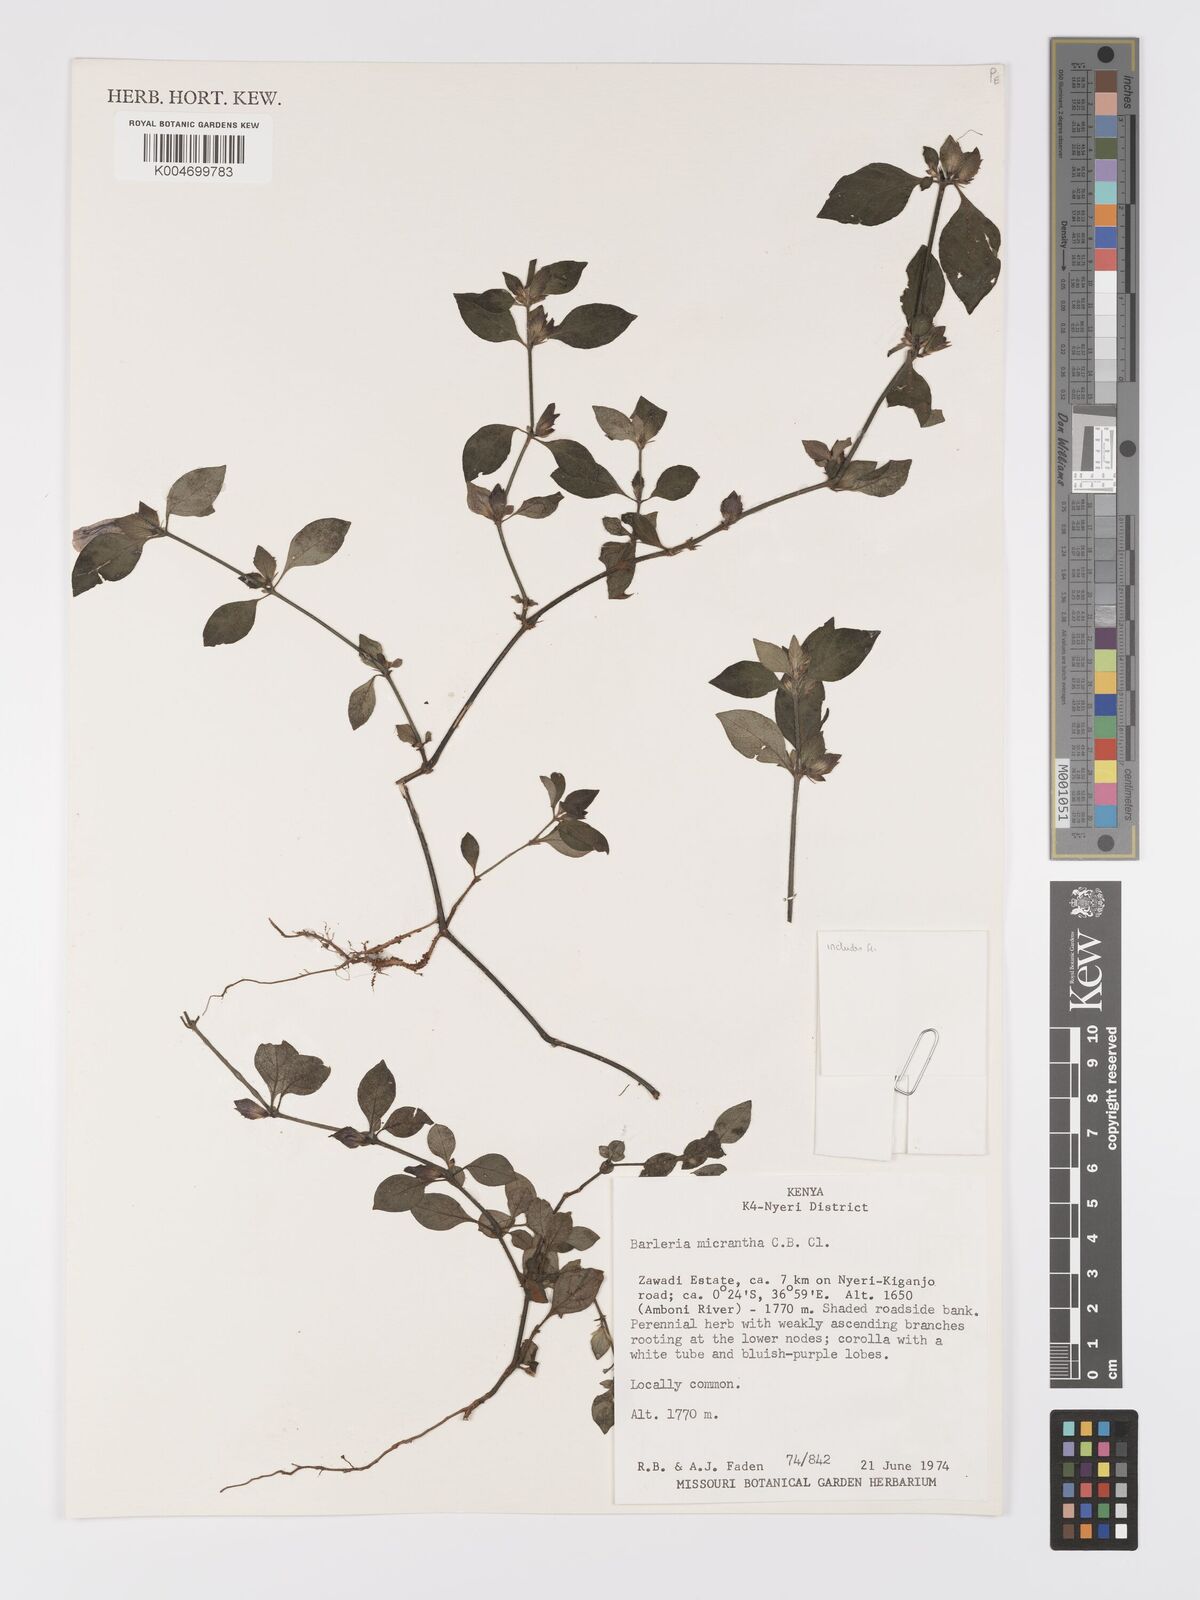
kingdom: Plantae
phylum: Tracheophyta
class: Magnoliopsida
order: Lamiales
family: Acanthaceae
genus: Barleria
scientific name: Barleria ventricosa
